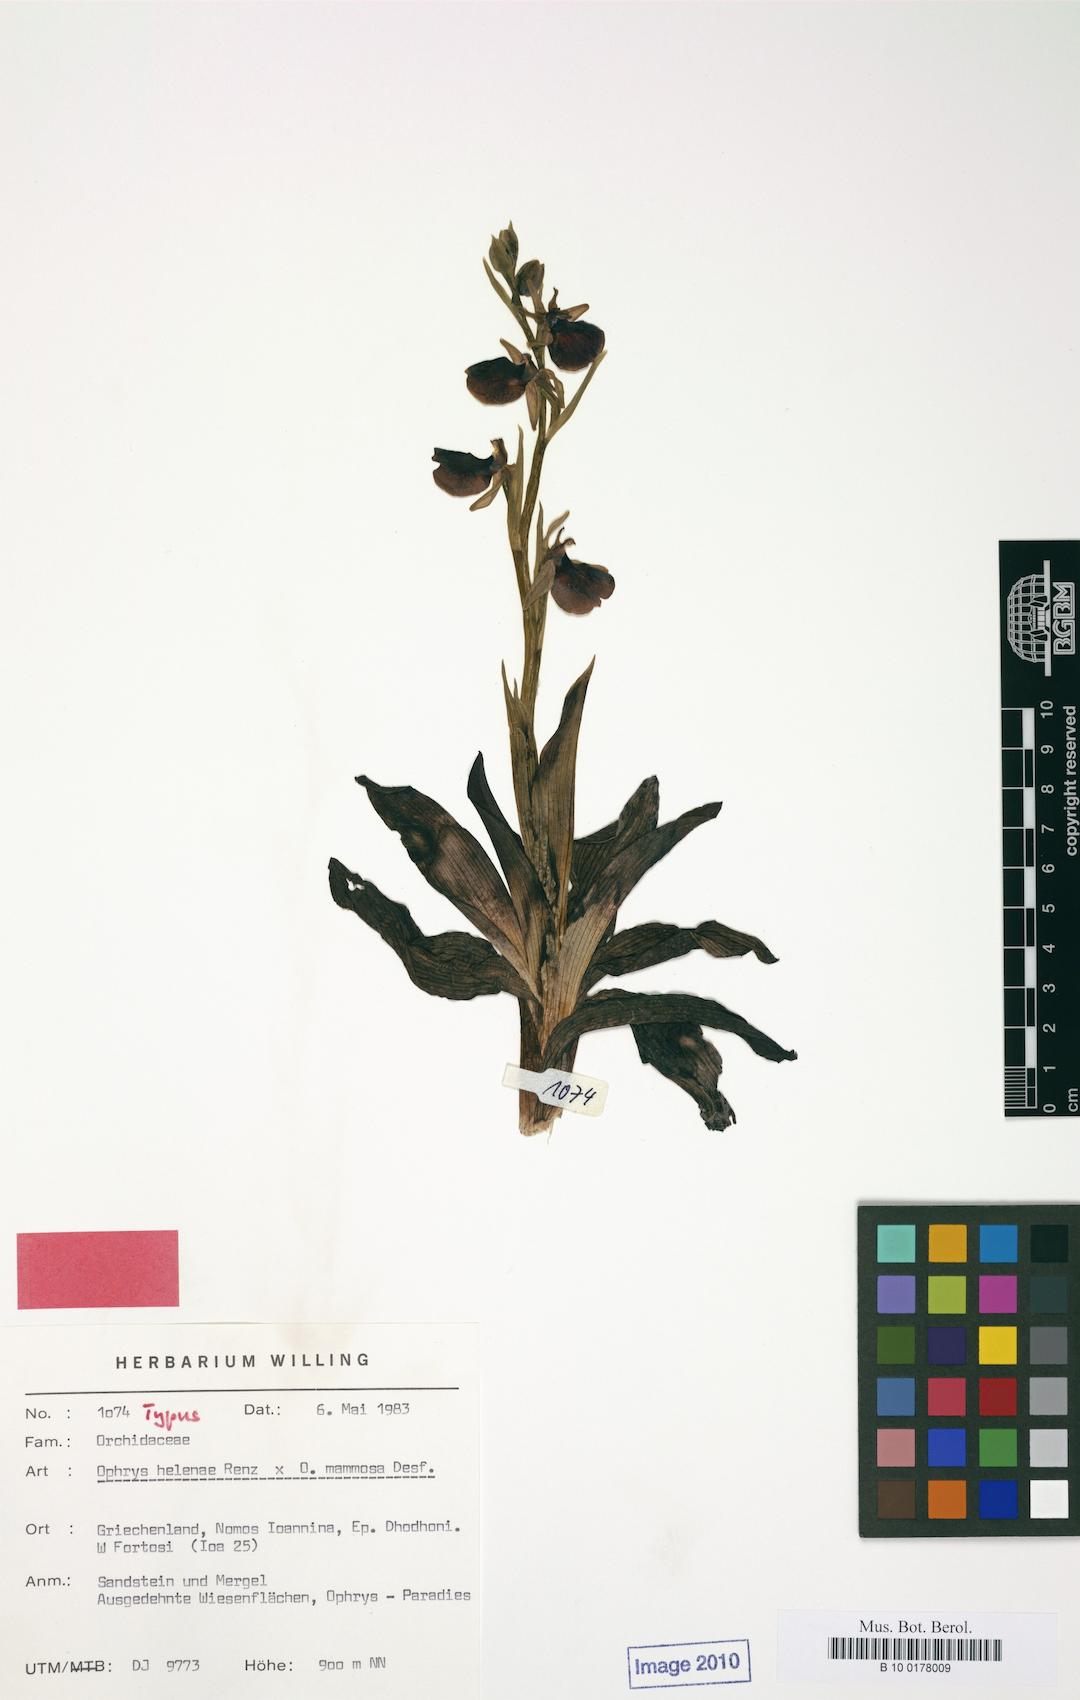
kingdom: Plantae
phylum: Tracheophyta
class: Liliopsida
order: Asparagales
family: Orchidaceae
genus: Ophrys
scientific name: Ophrys sphegodes
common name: Early spider-orchid
